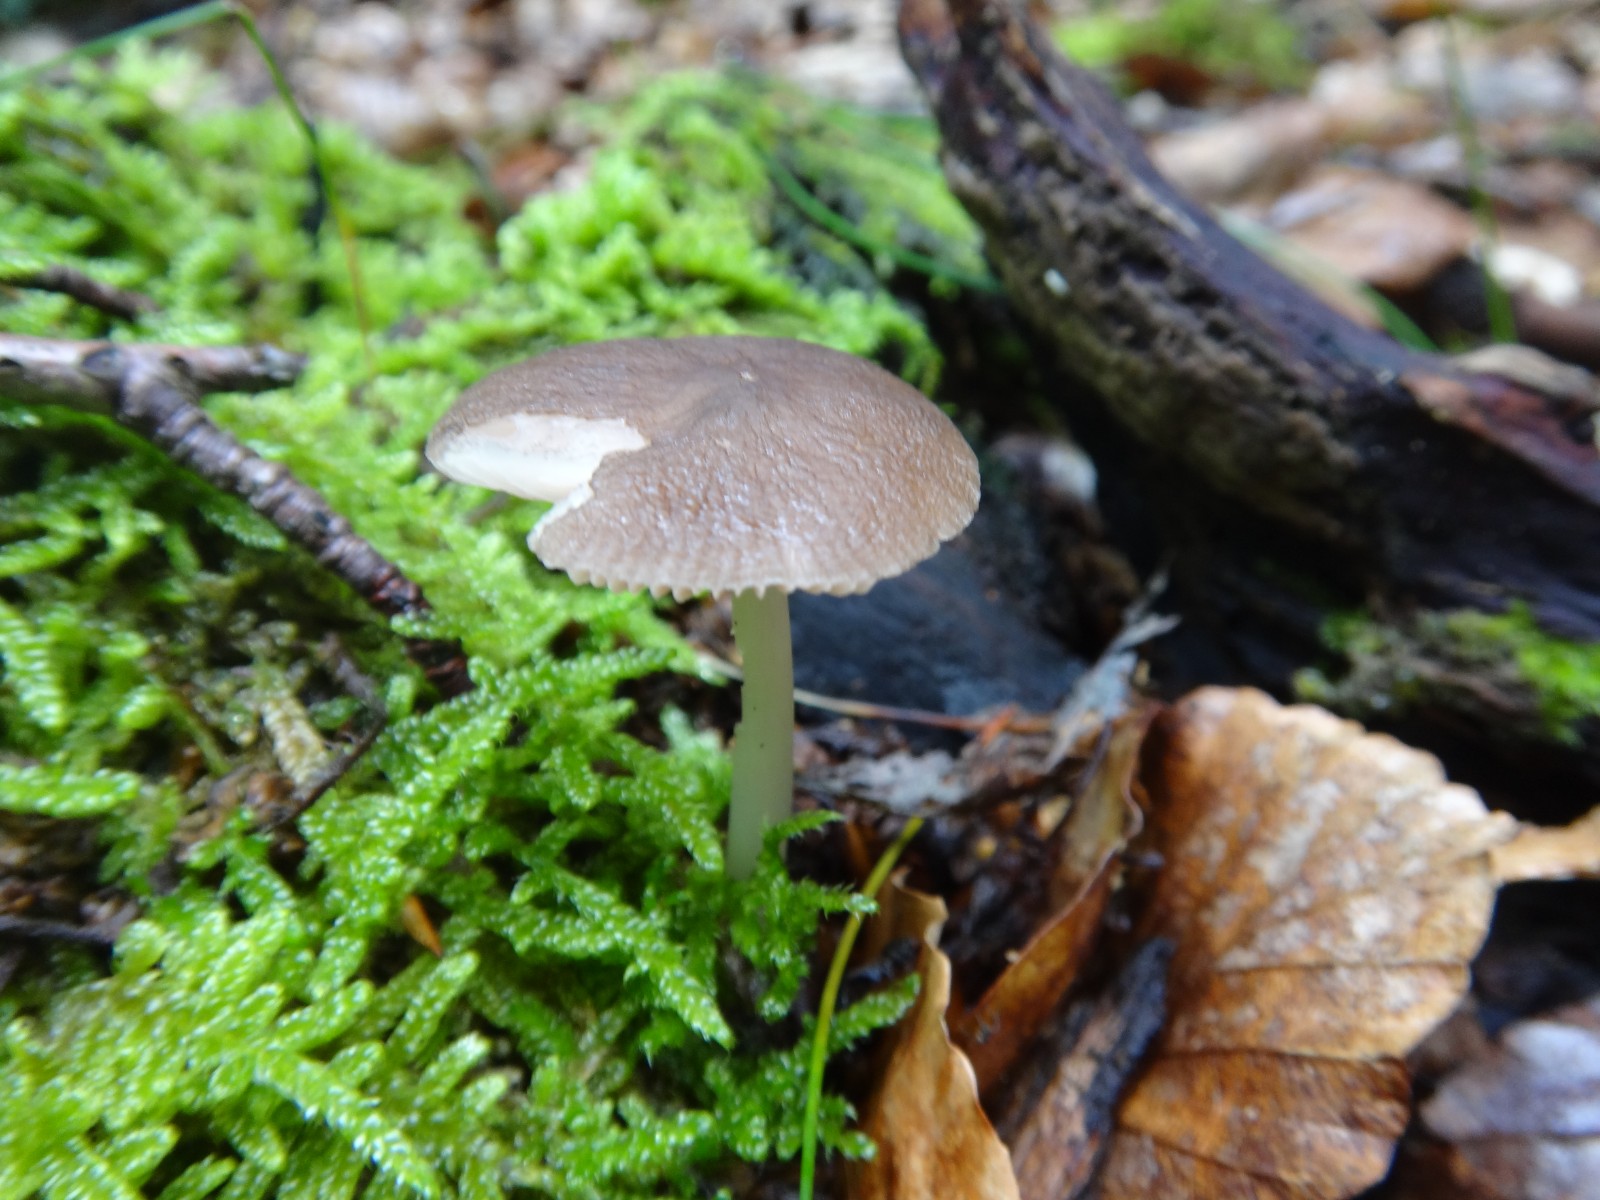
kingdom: Fungi
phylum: Basidiomycota
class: Agaricomycetes
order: Agaricales
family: Pluteaceae
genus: Pluteus
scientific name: Pluteus phlebophorus
